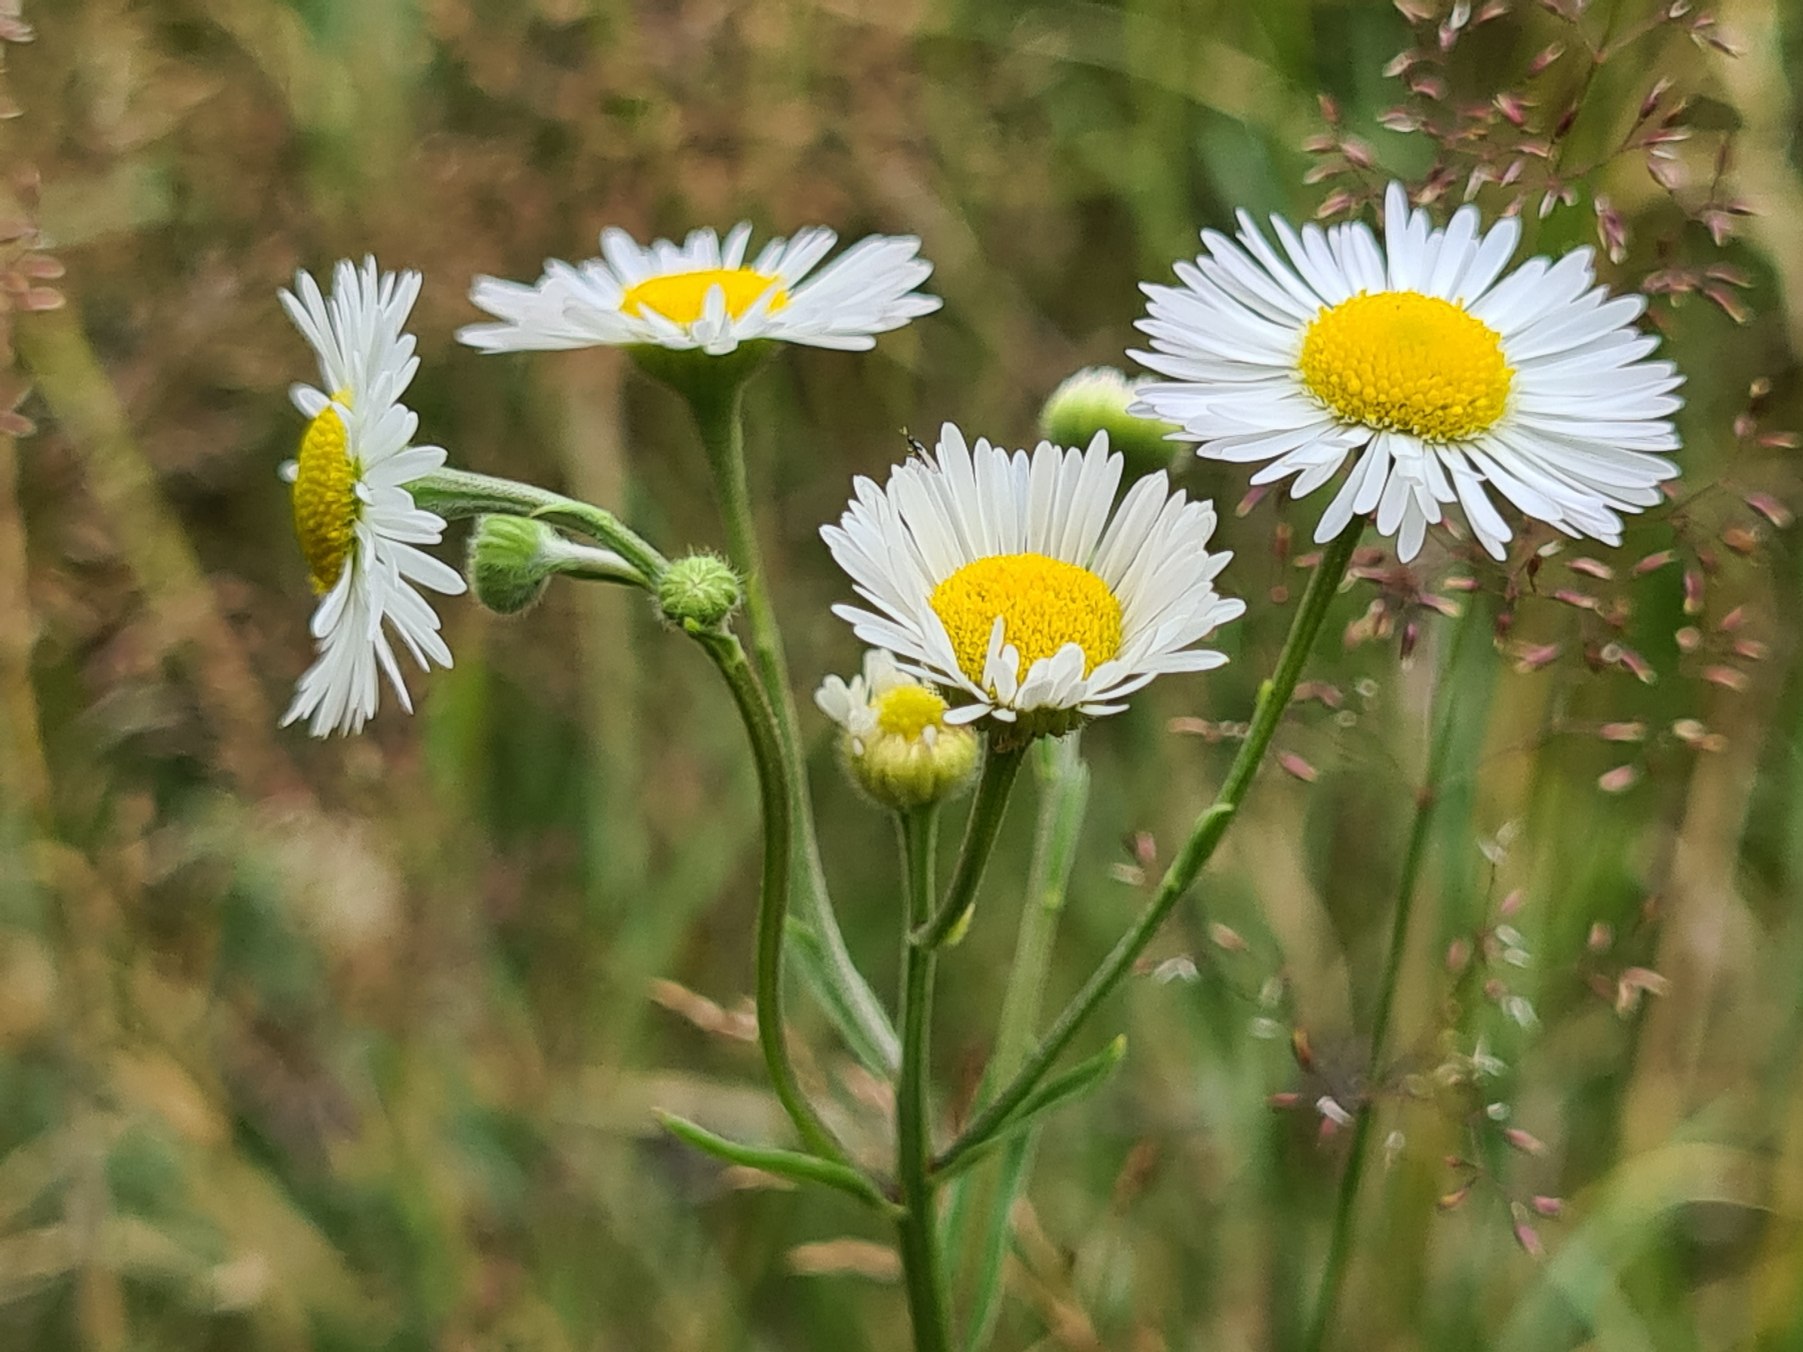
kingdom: Plantae
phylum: Tracheophyta
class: Magnoliopsida
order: Asterales
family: Asteraceae
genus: Erigeron
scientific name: Erigeron annuus
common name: Smalstråle
